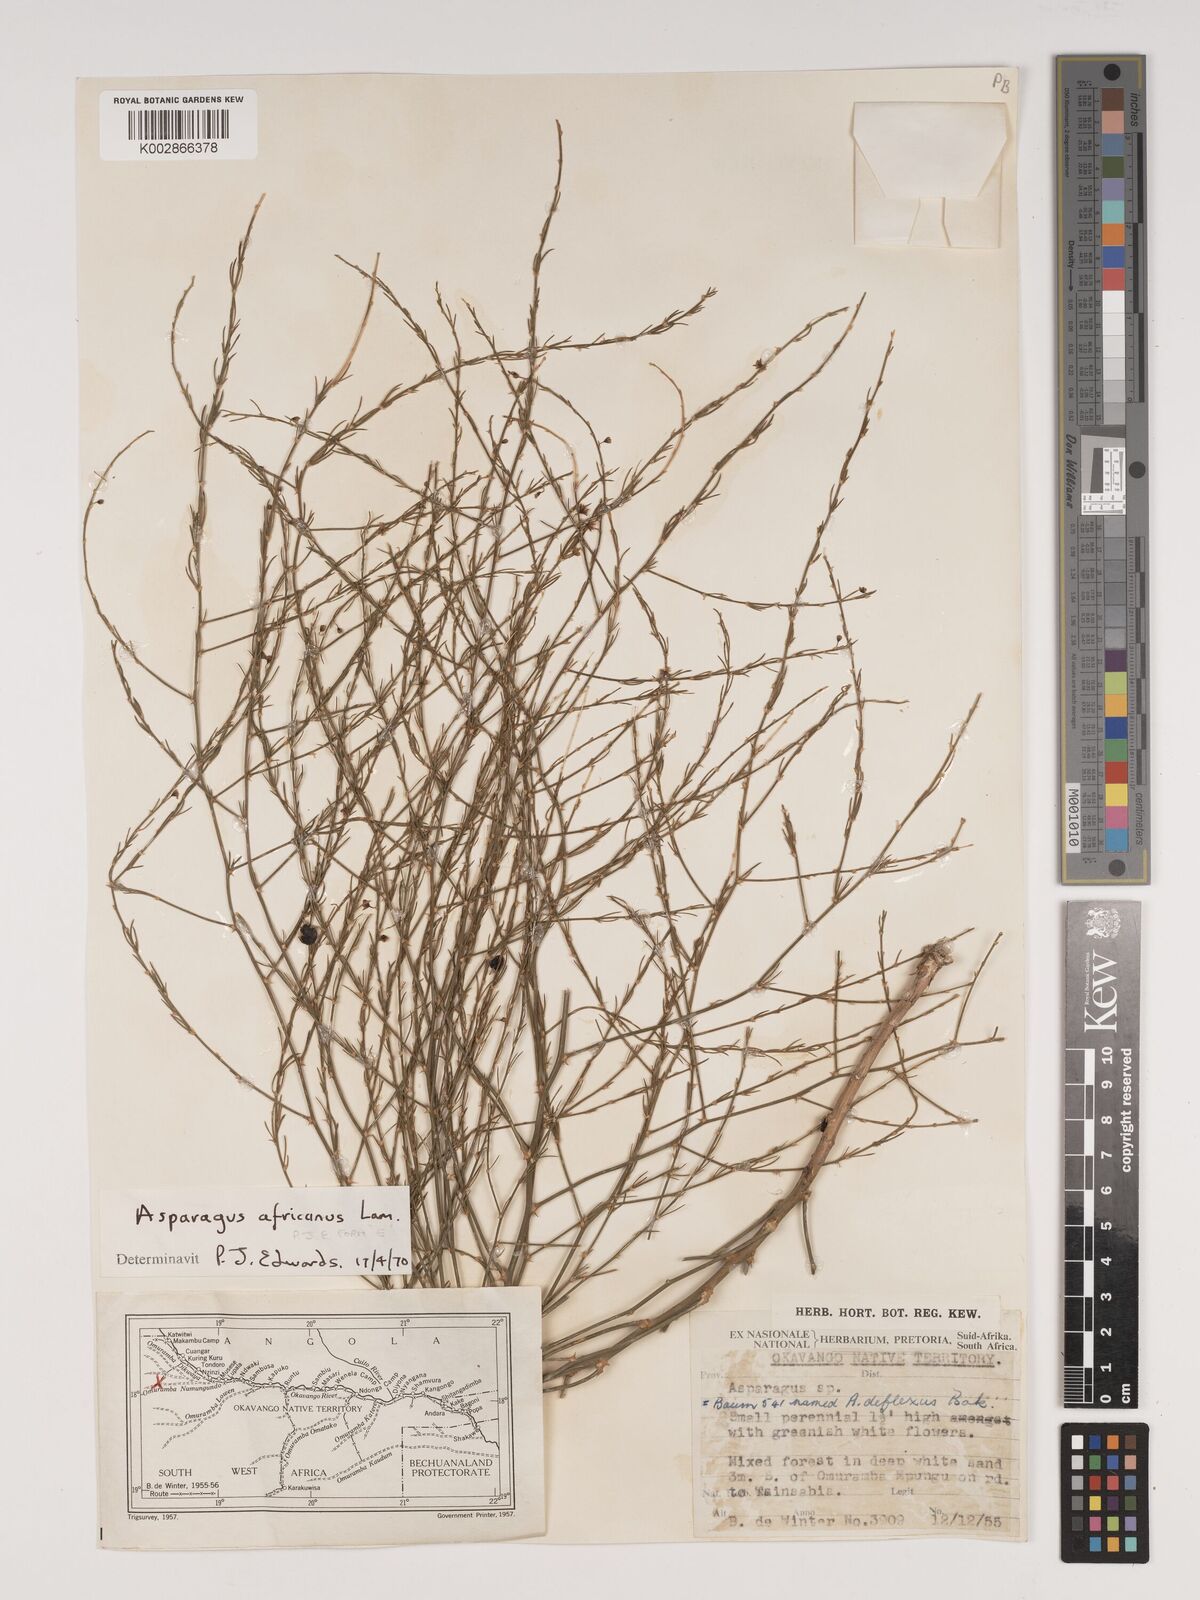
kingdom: Plantae
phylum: Tracheophyta
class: Liliopsida
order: Asparagales
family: Asparagaceae
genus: Asparagus
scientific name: Asparagus africanus
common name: Asparagus-fern
